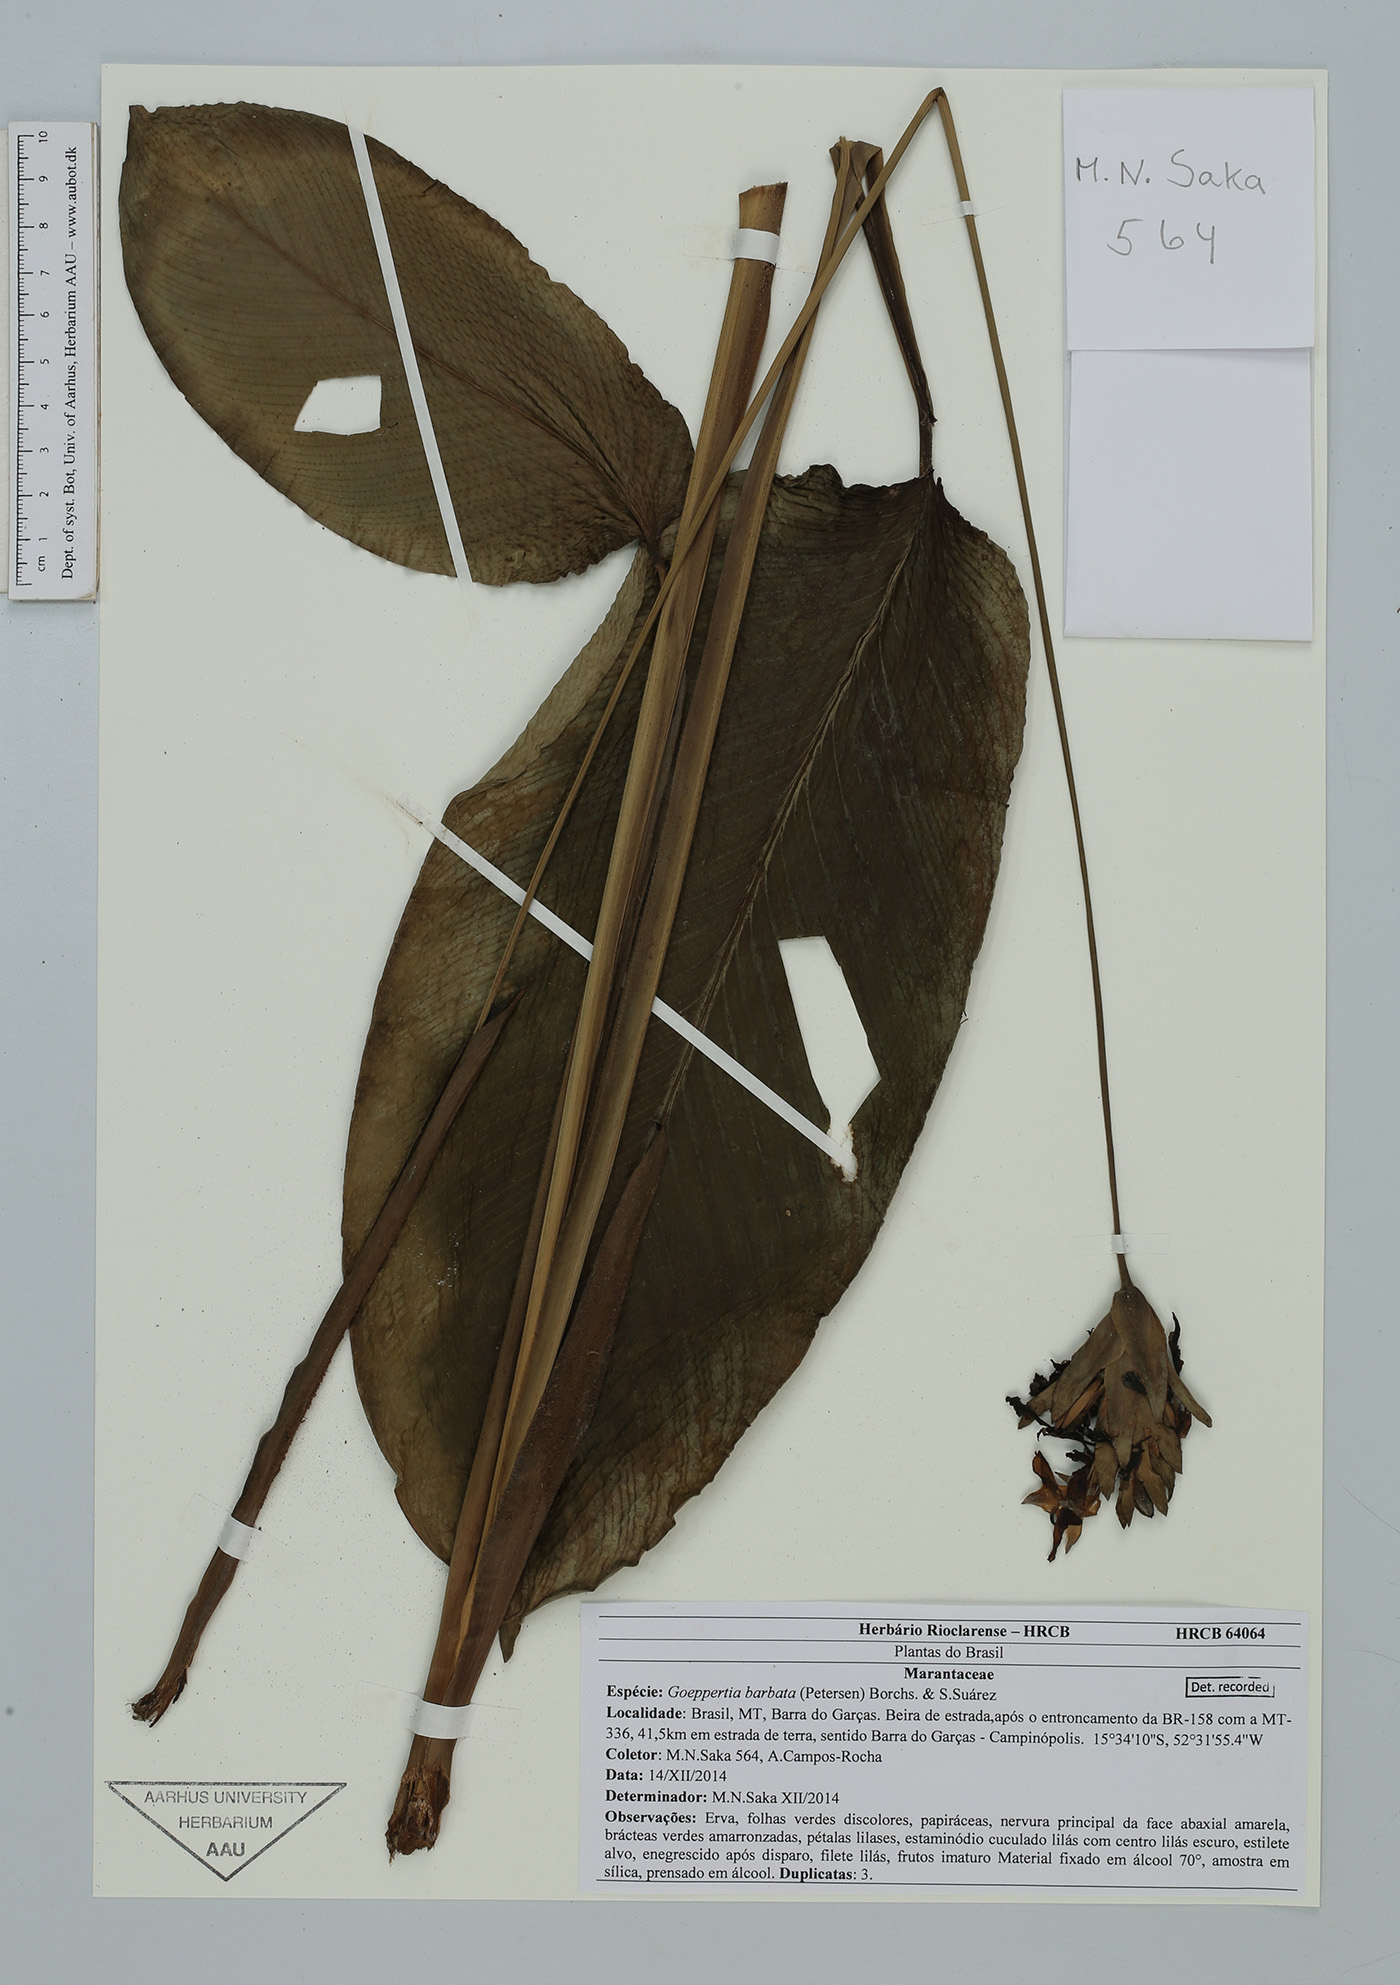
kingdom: Plantae
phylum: Tracheophyta
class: Liliopsida
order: Zingiberales
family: Marantaceae
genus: Goeppertia
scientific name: Goeppertia barbata
